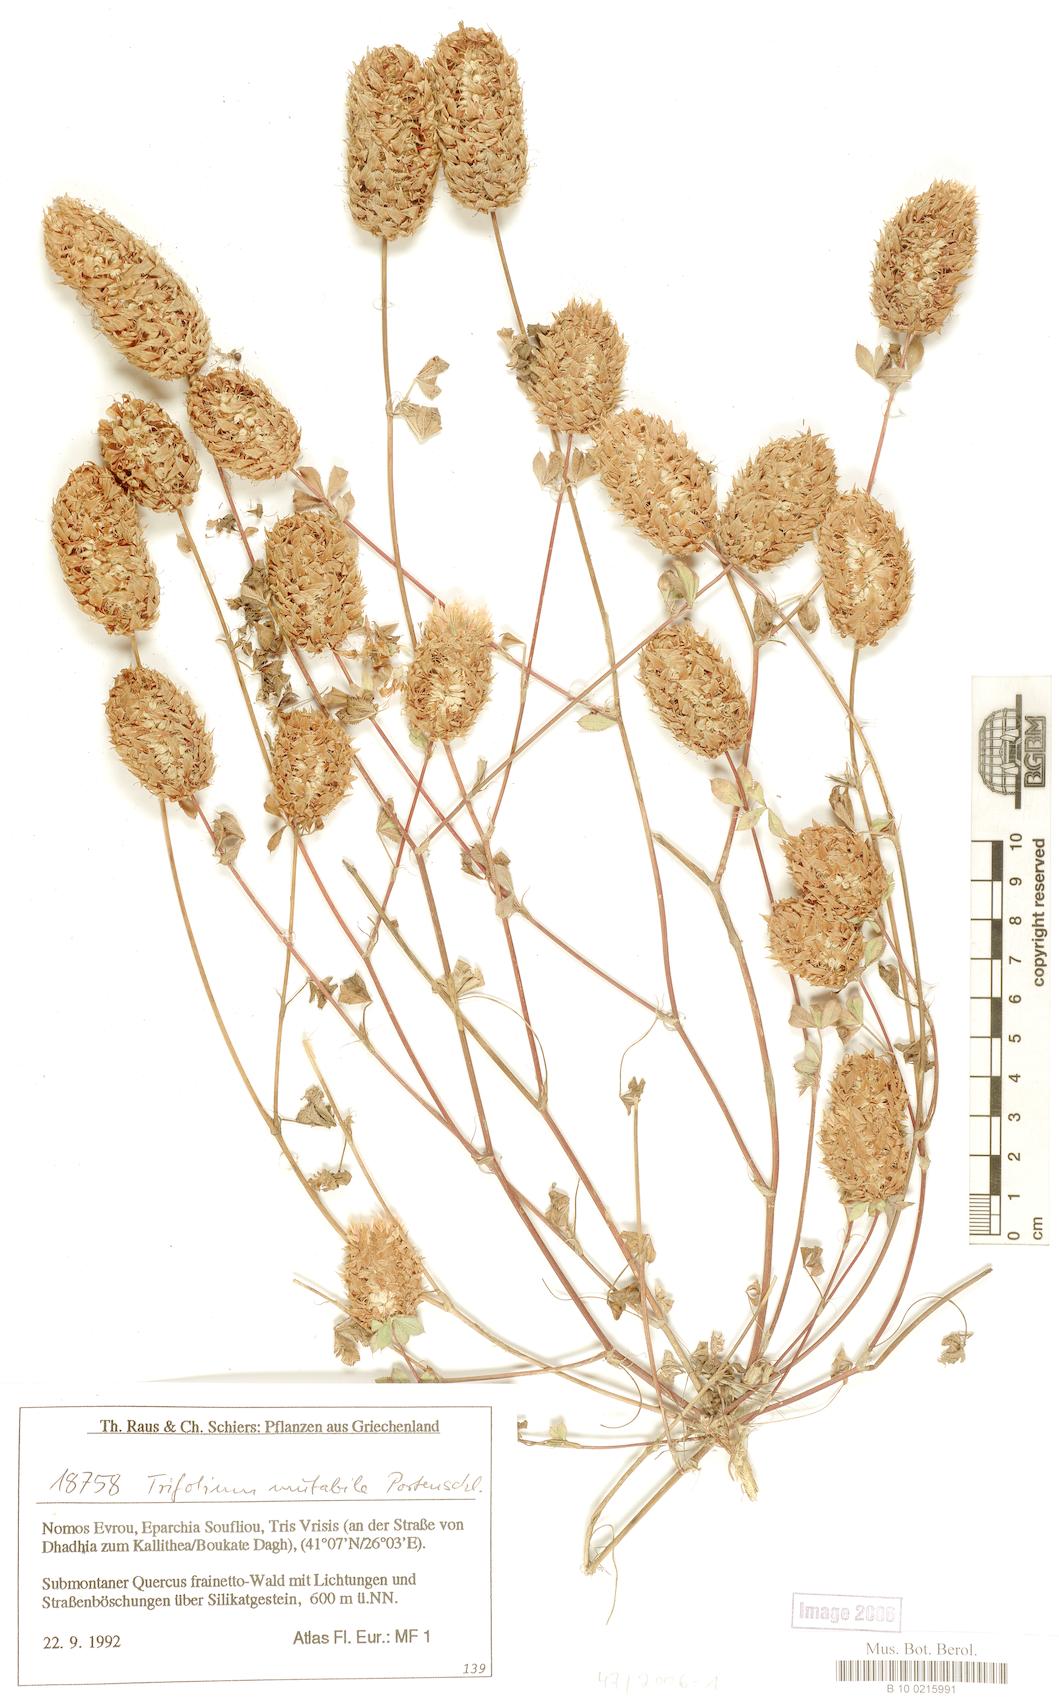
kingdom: Plantae
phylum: Tracheophyta
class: Magnoliopsida
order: Fabales
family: Fabaceae
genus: Trifolium
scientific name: Trifolium mutabile
